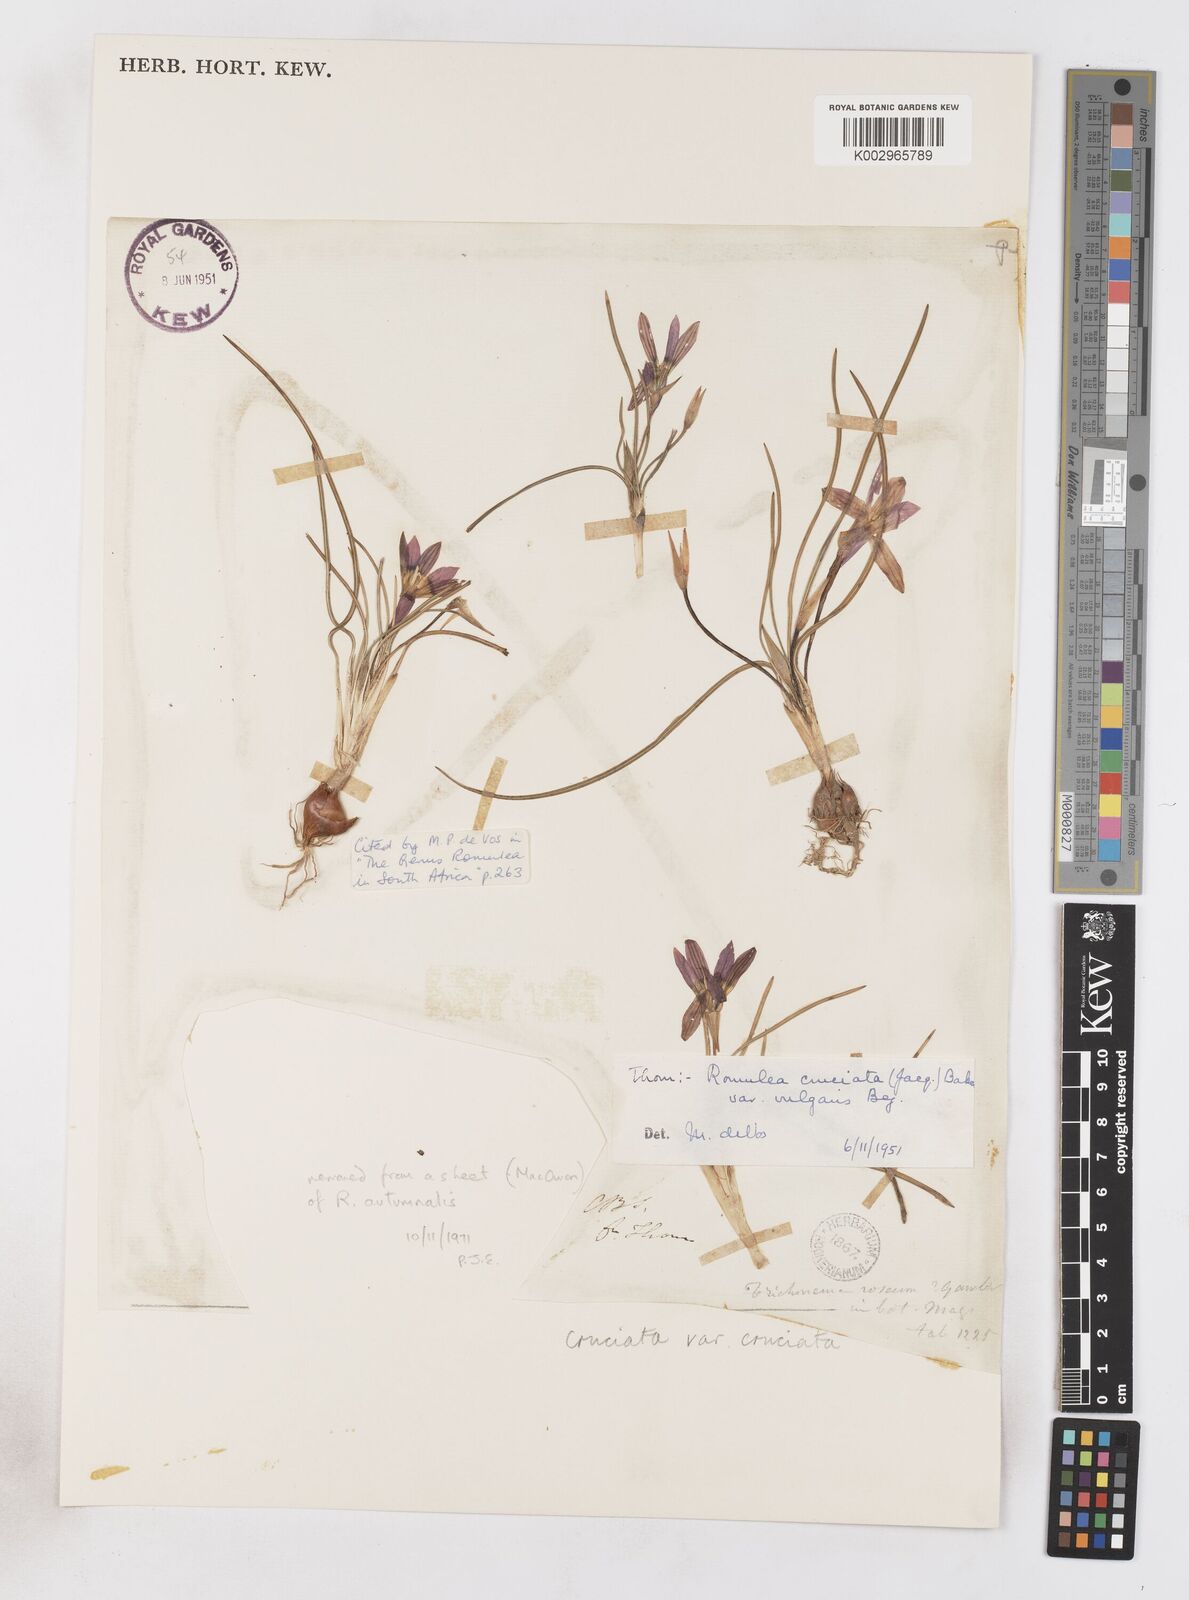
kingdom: Plantae
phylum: Tracheophyta
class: Liliopsida
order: Asparagales
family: Iridaceae
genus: Romulea
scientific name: Romulea cruciata
